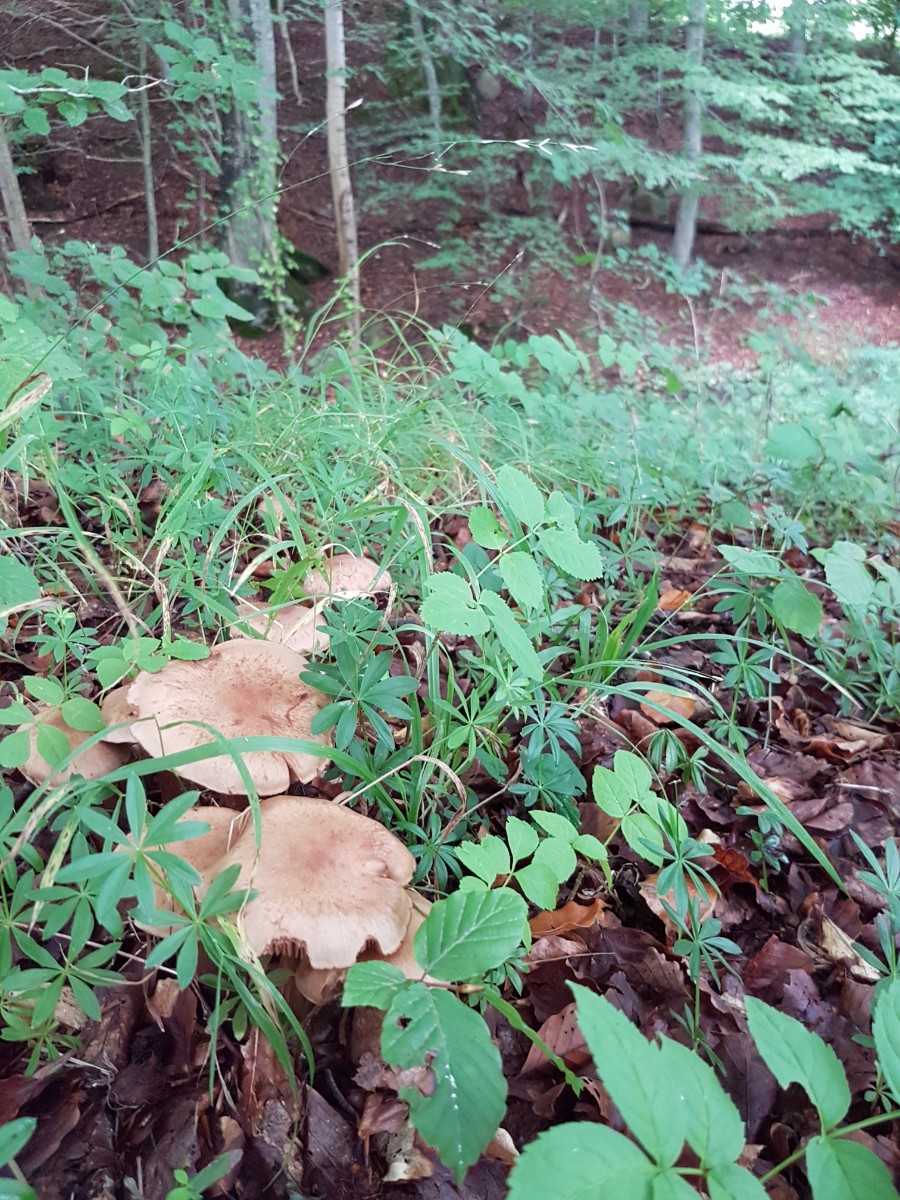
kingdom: Fungi
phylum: Basidiomycota
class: Agaricomycetes
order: Agaricales
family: Cortinariaceae
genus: Cortinarius
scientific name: Cortinarius sociatus
